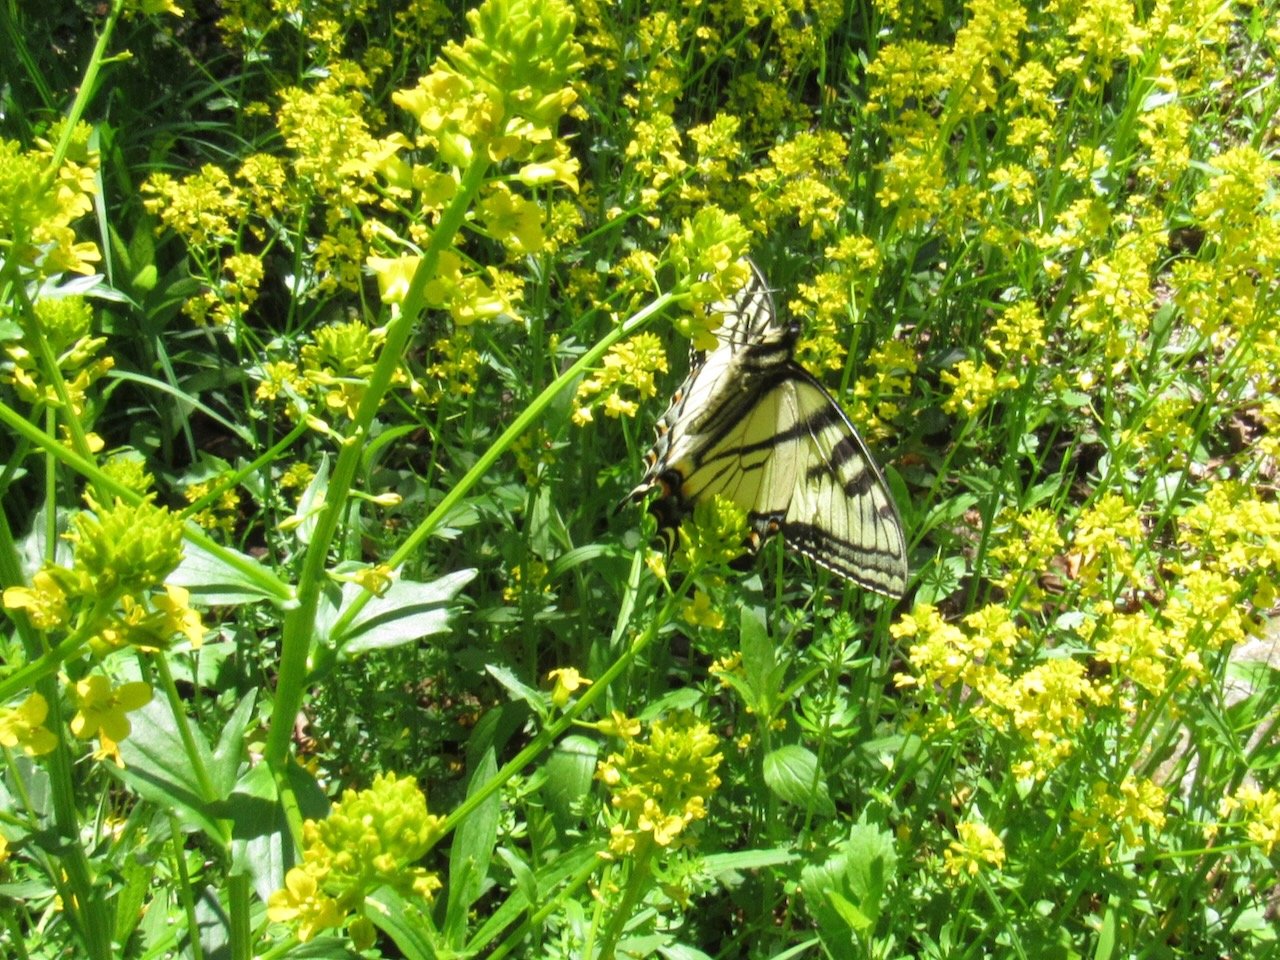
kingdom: Animalia
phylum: Arthropoda
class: Insecta
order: Lepidoptera
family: Papilionidae
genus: Pterourus
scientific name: Pterourus canadensis
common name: Canadian Tiger Swallowtail
